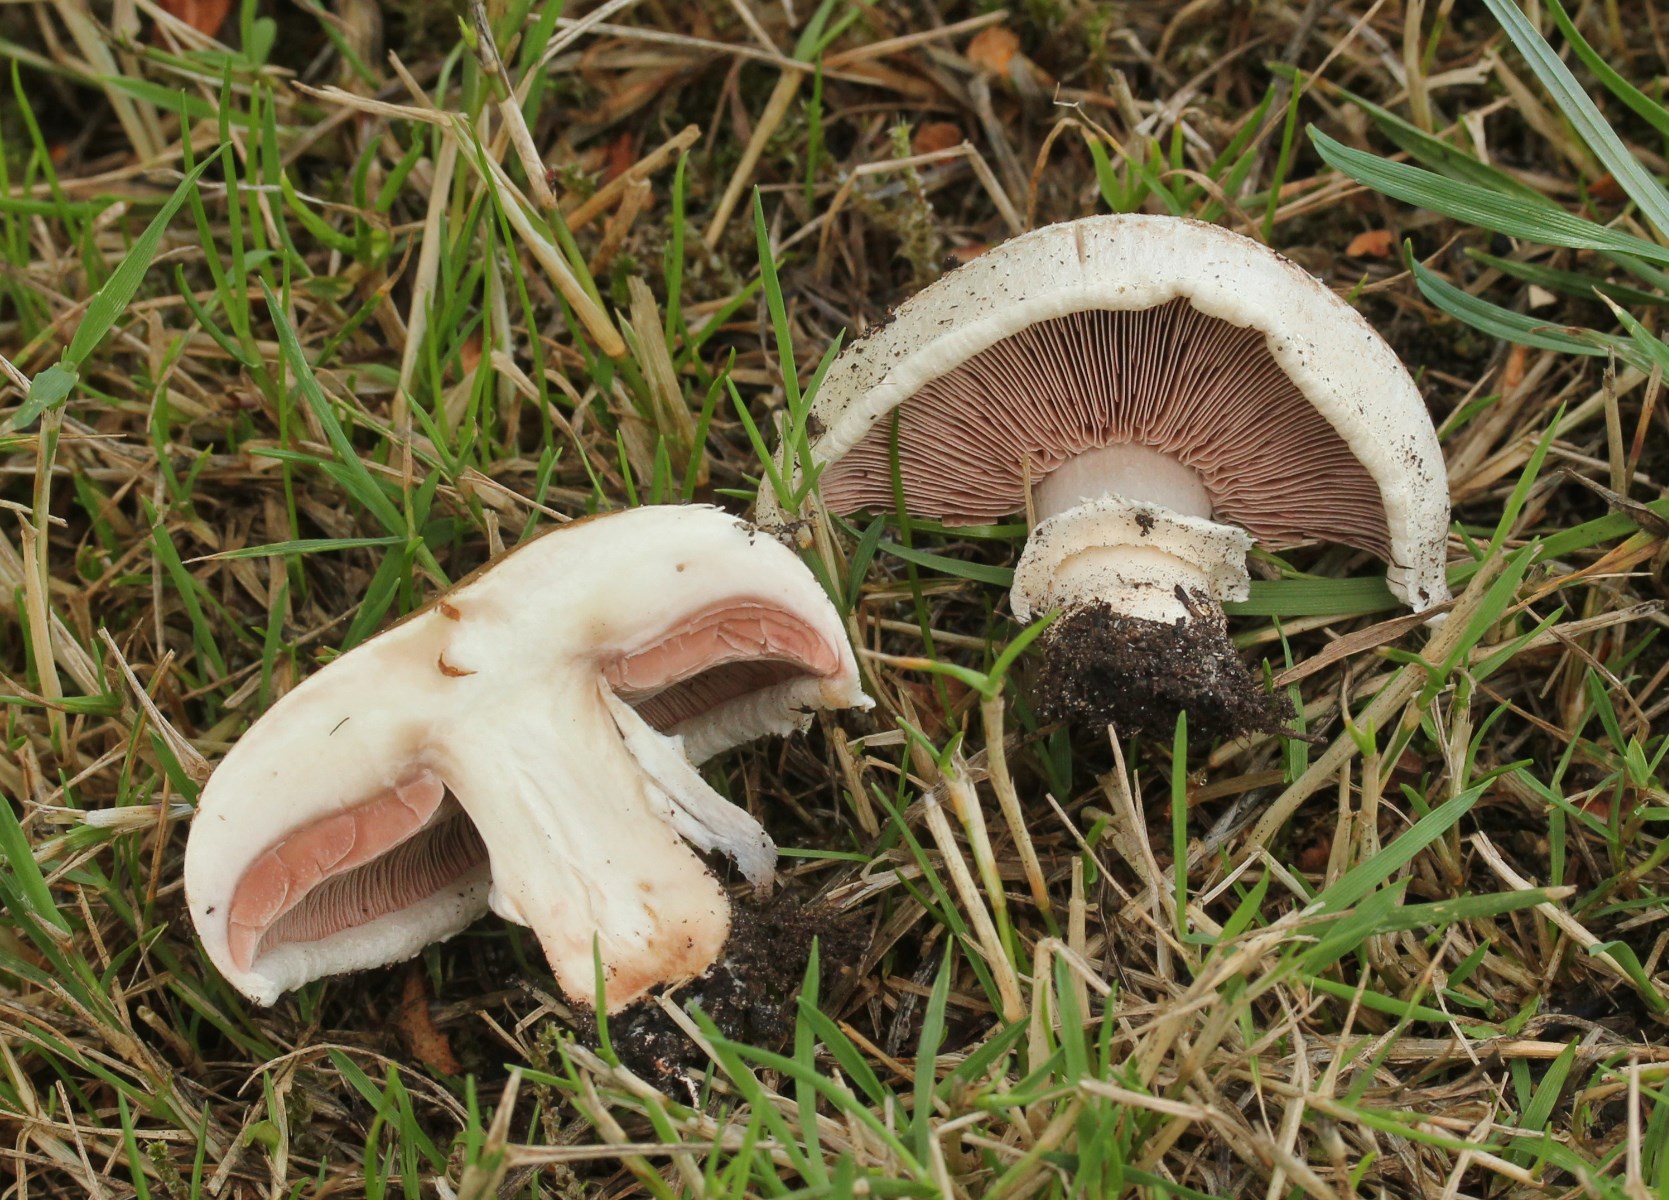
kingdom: Fungi
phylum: Basidiomycota
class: Agaricomycetes
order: Agaricales
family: Agaricaceae
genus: Agaricus
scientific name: Agaricus bisporus
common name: have-champignon
